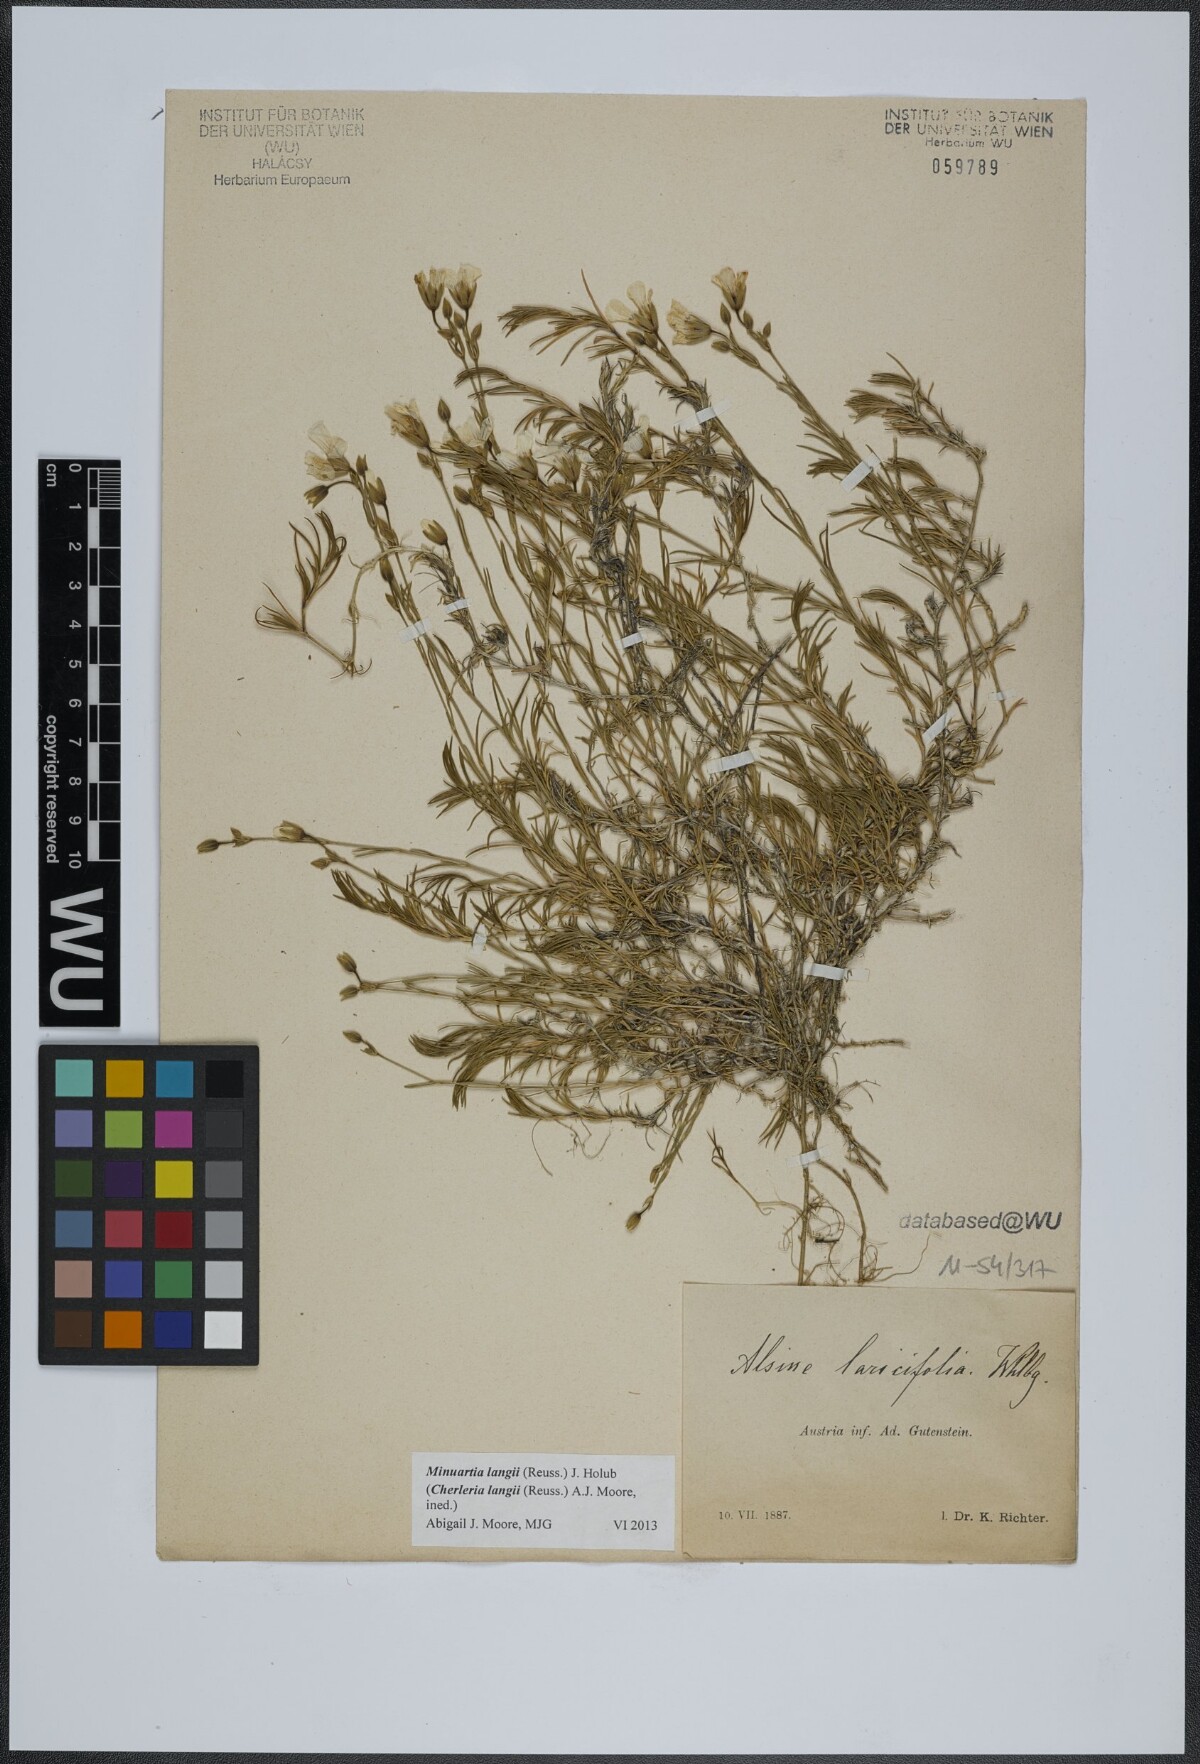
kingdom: Plantae
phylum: Tracheophyta
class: Magnoliopsida
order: Caryophyllales
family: Caryophyllaceae
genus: Cherleria
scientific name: Cherleria langii
